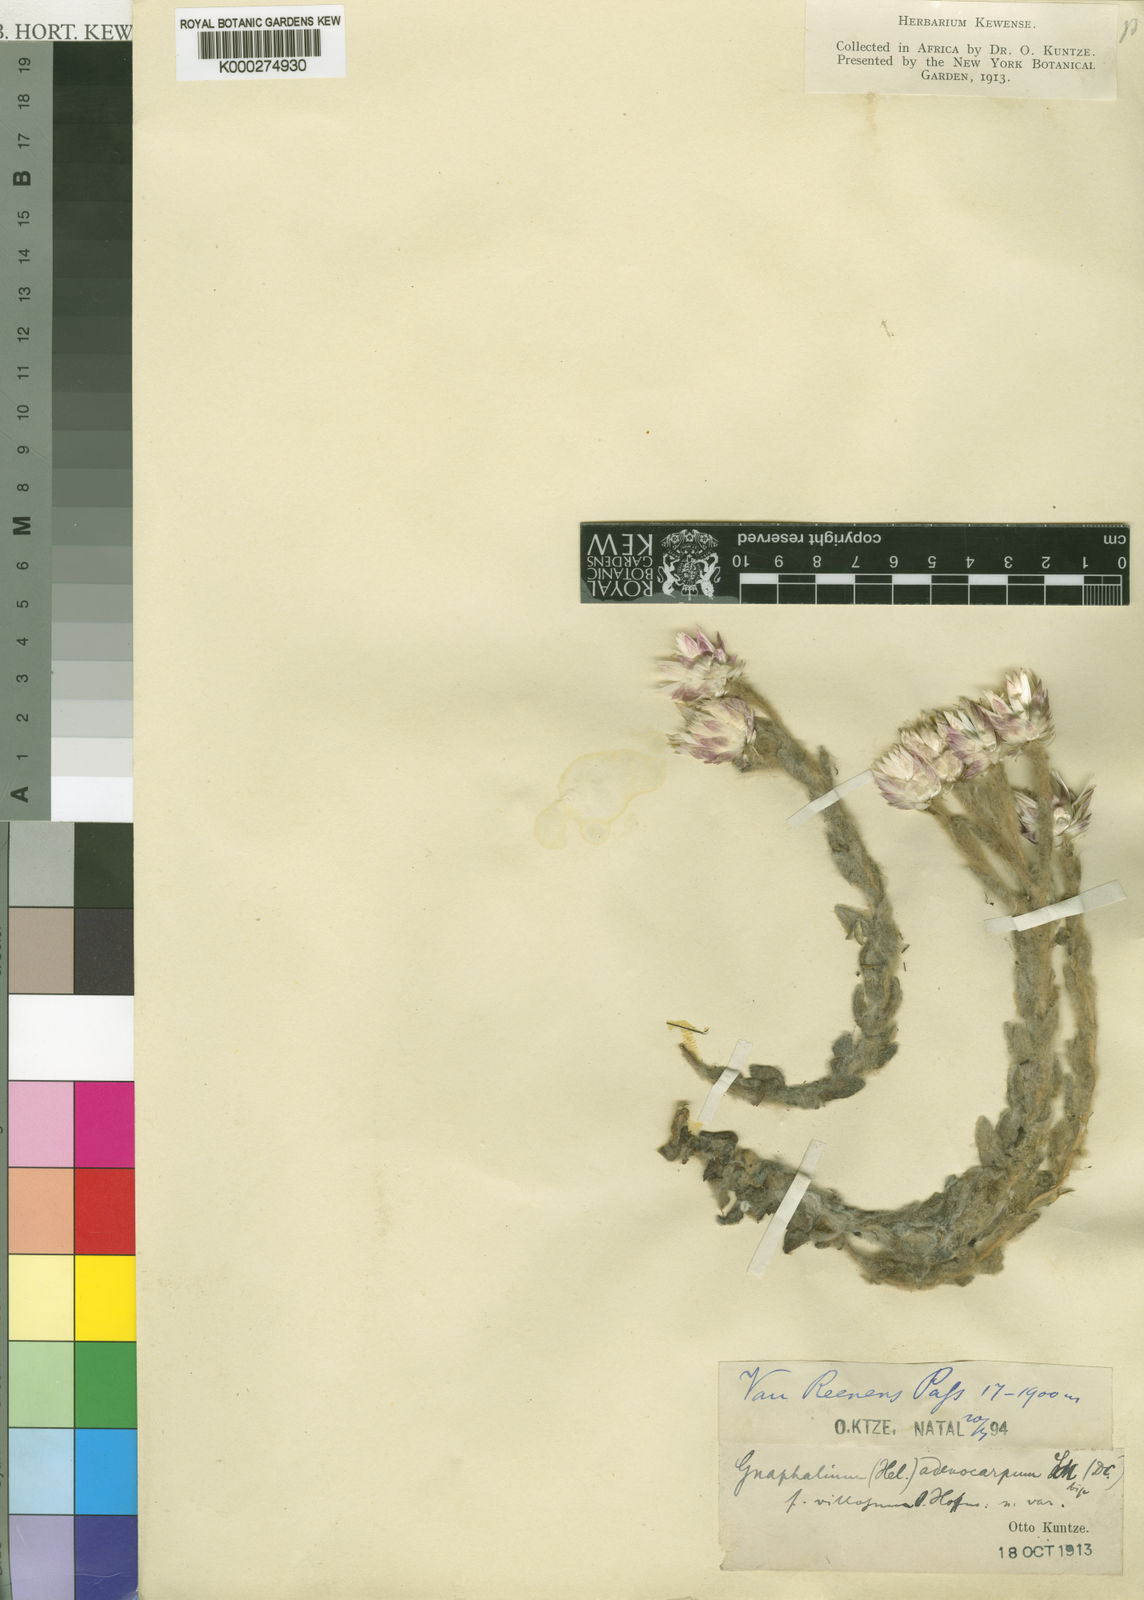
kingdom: Plantae
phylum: Tracheophyta
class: Magnoliopsida
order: Asterales
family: Asteraceae
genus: Helichrysum
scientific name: Helichrysum adenocarpum
